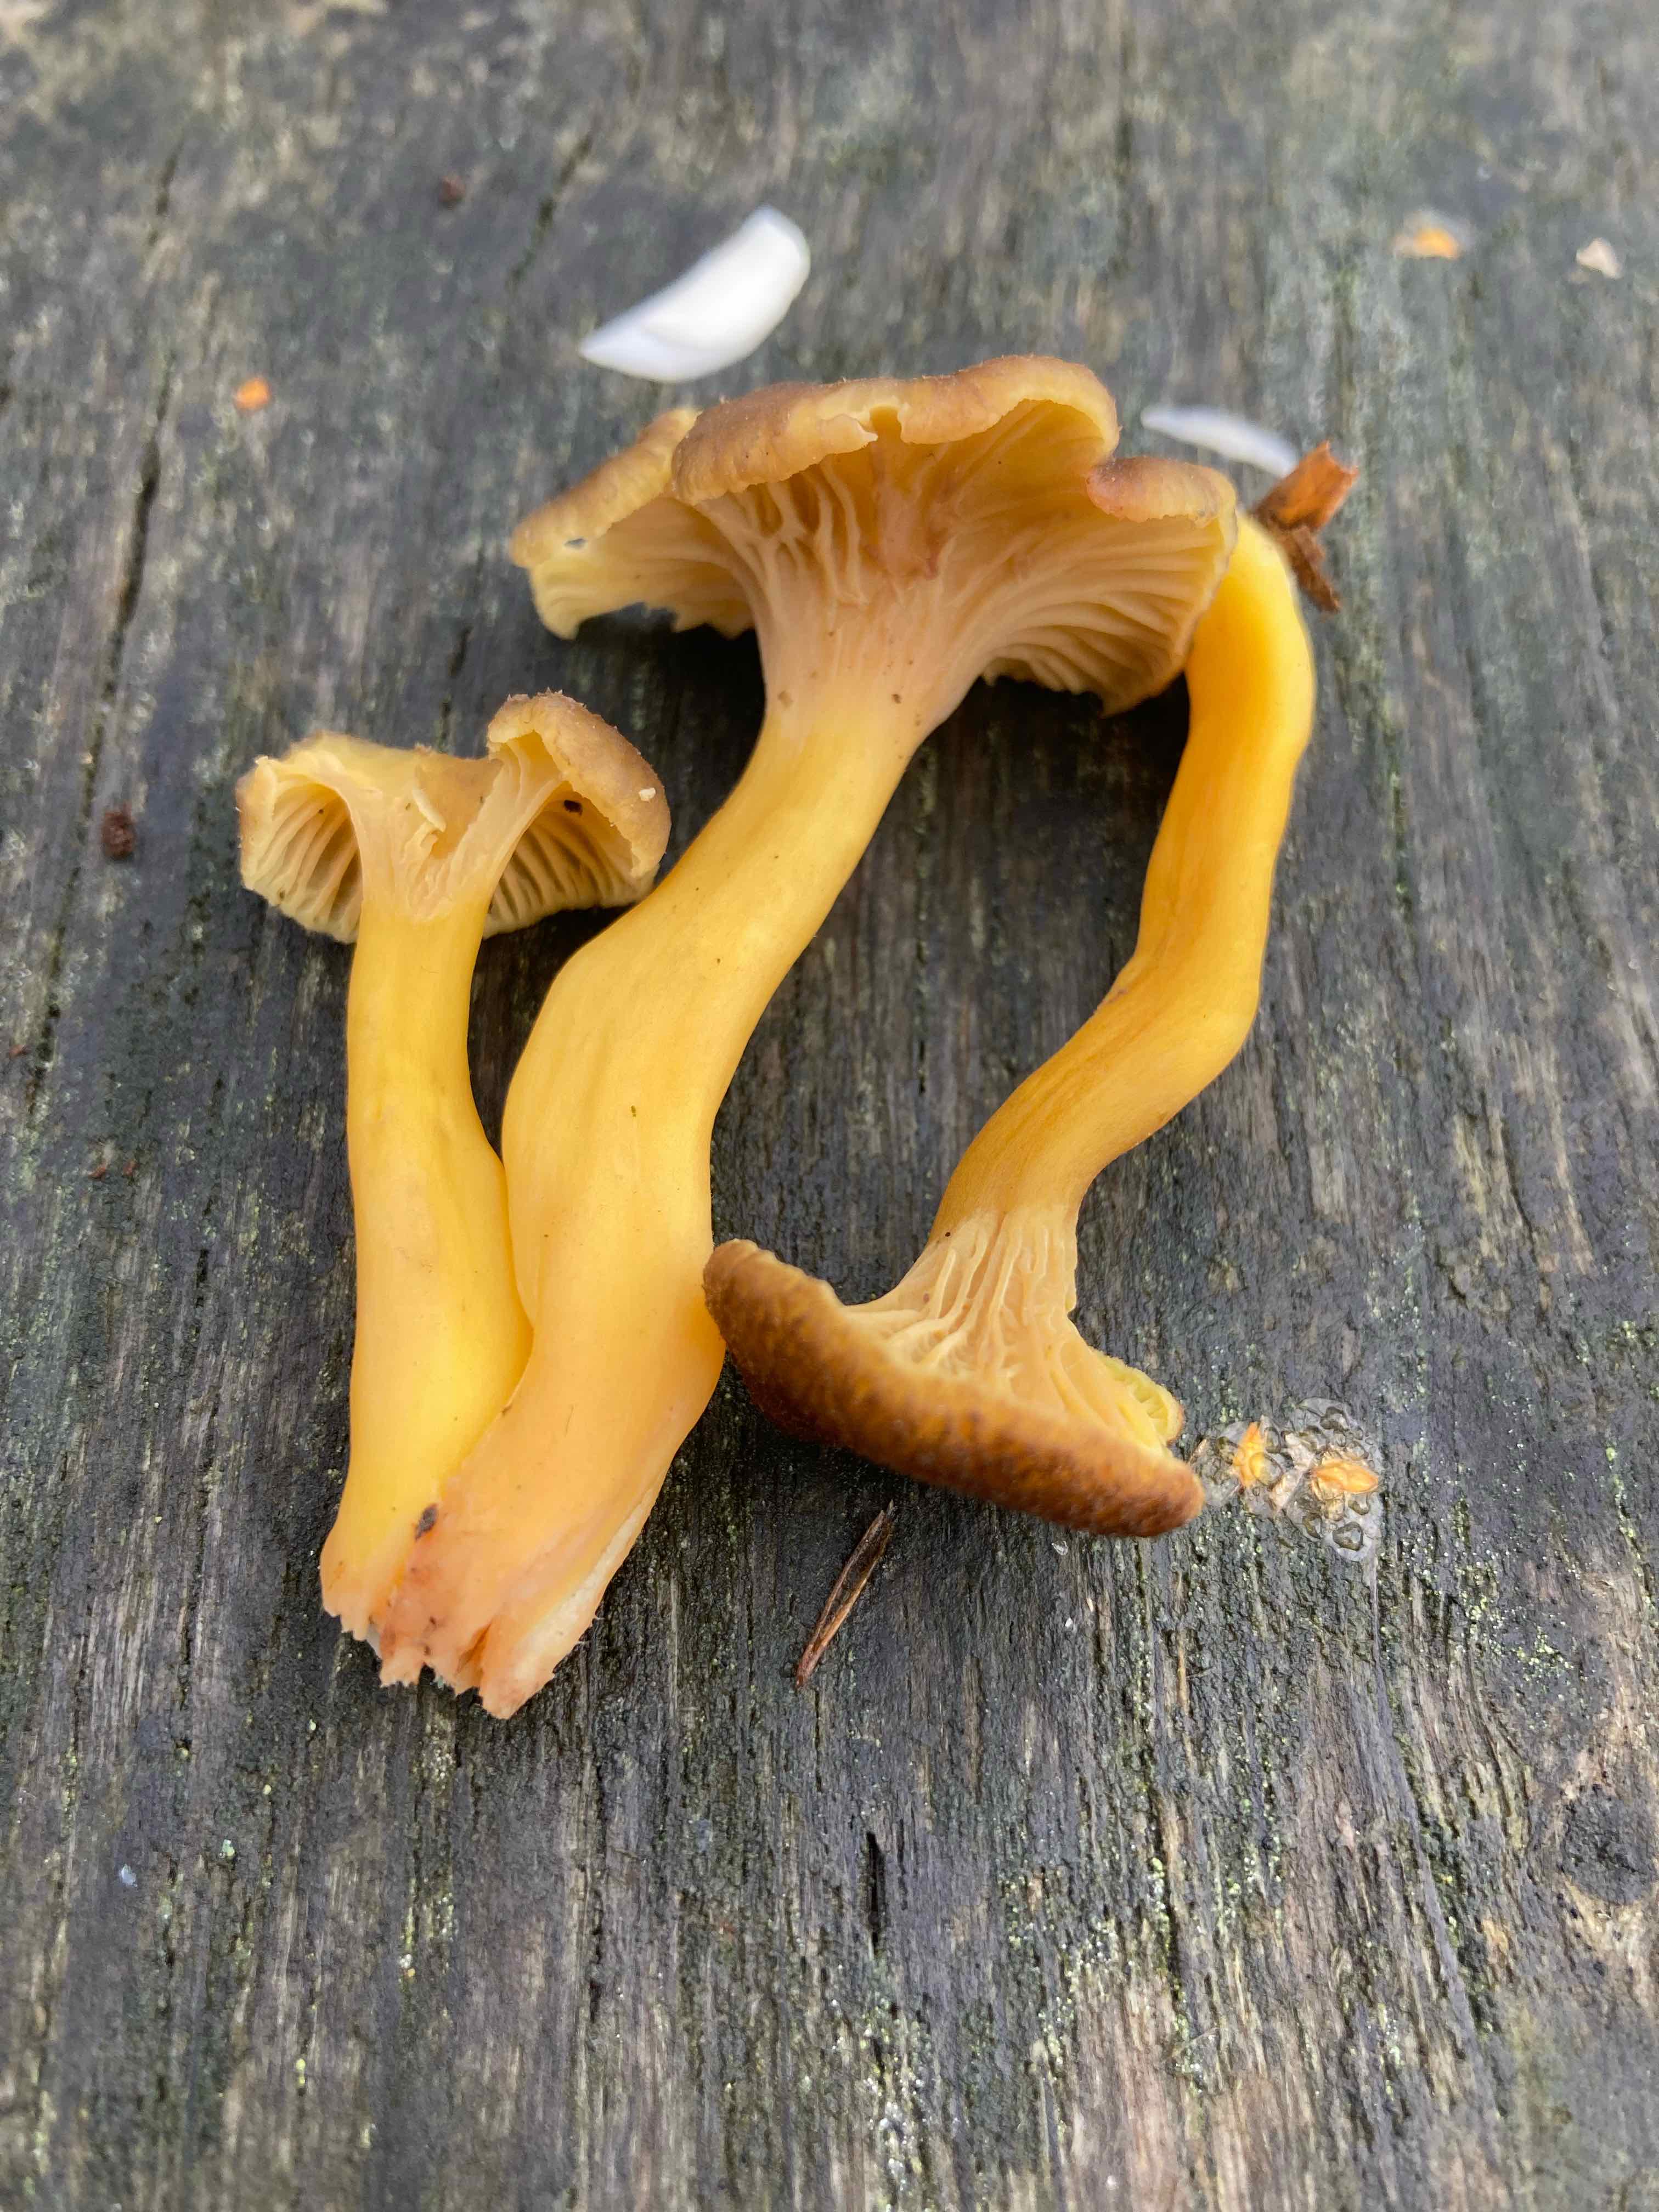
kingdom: Fungi
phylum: Basidiomycota
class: Agaricomycetes
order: Cantharellales
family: Hydnaceae
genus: Craterellus
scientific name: Craterellus tubaeformis
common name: tragt-kantarel
